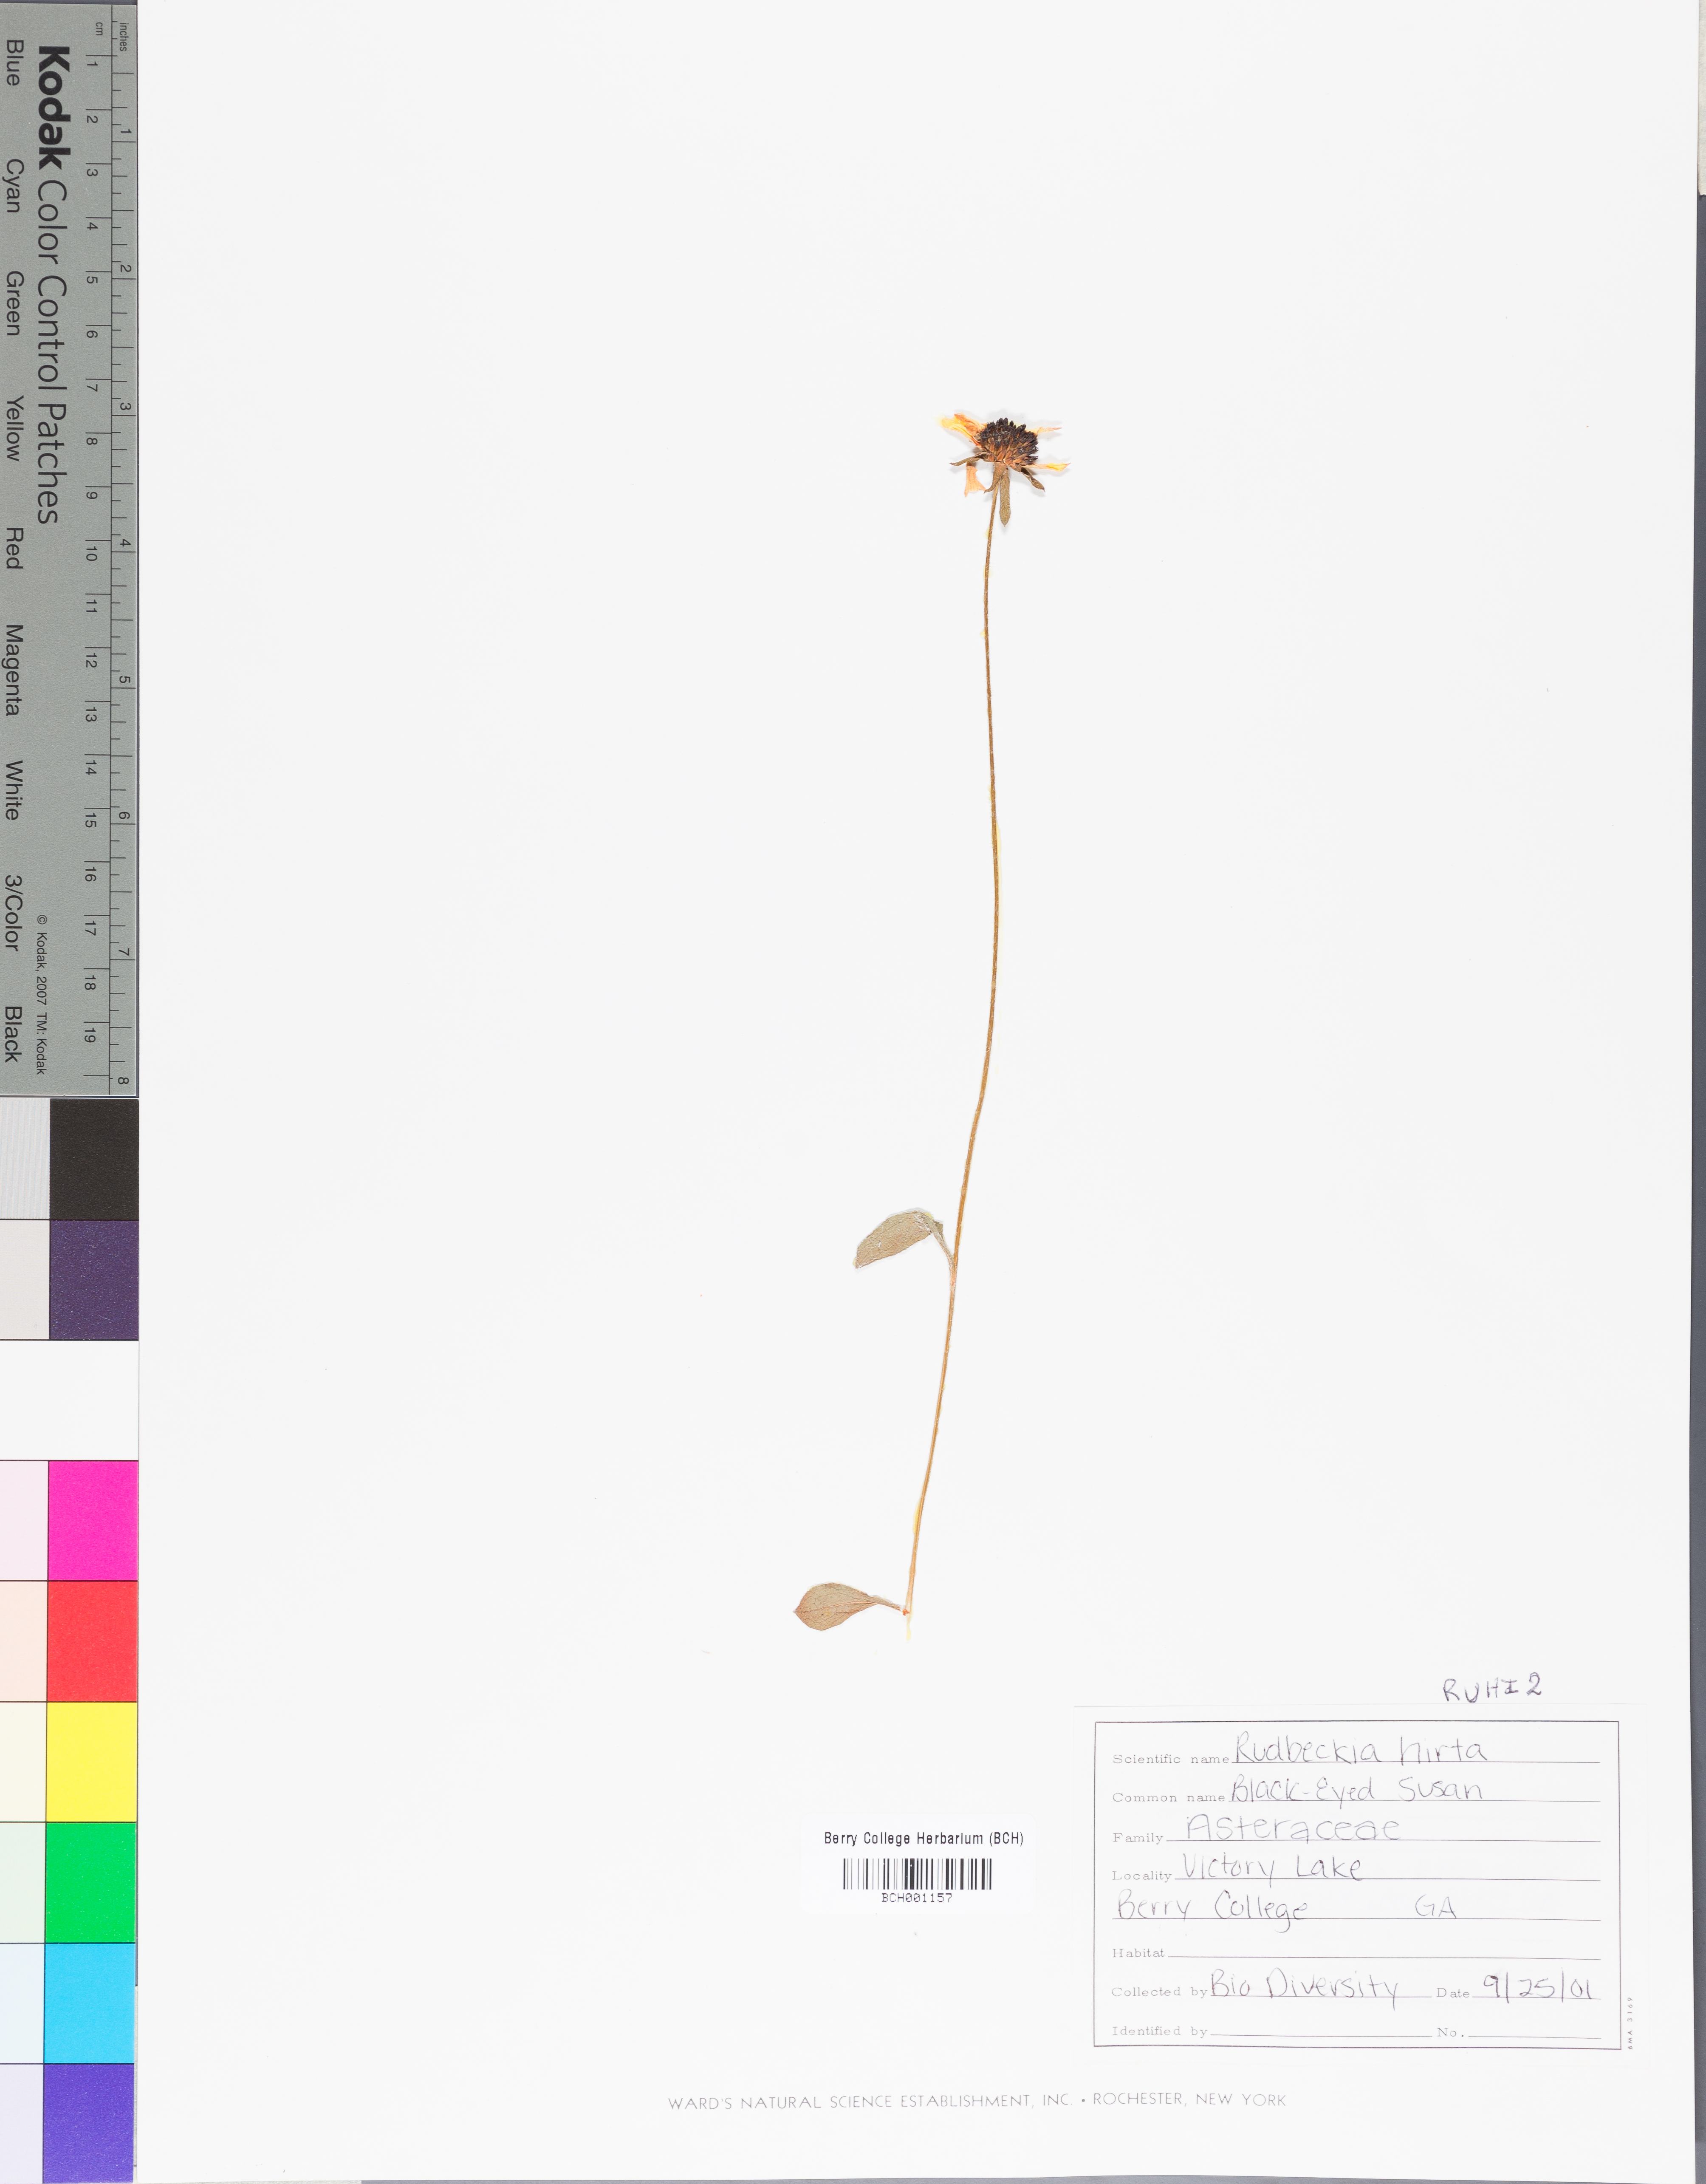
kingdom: Plantae
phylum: Tracheophyta
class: Magnoliopsida
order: Asterales
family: Asteraceae
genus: Rudbeckia
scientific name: Rudbeckia hirta
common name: Black-eyed-susan
